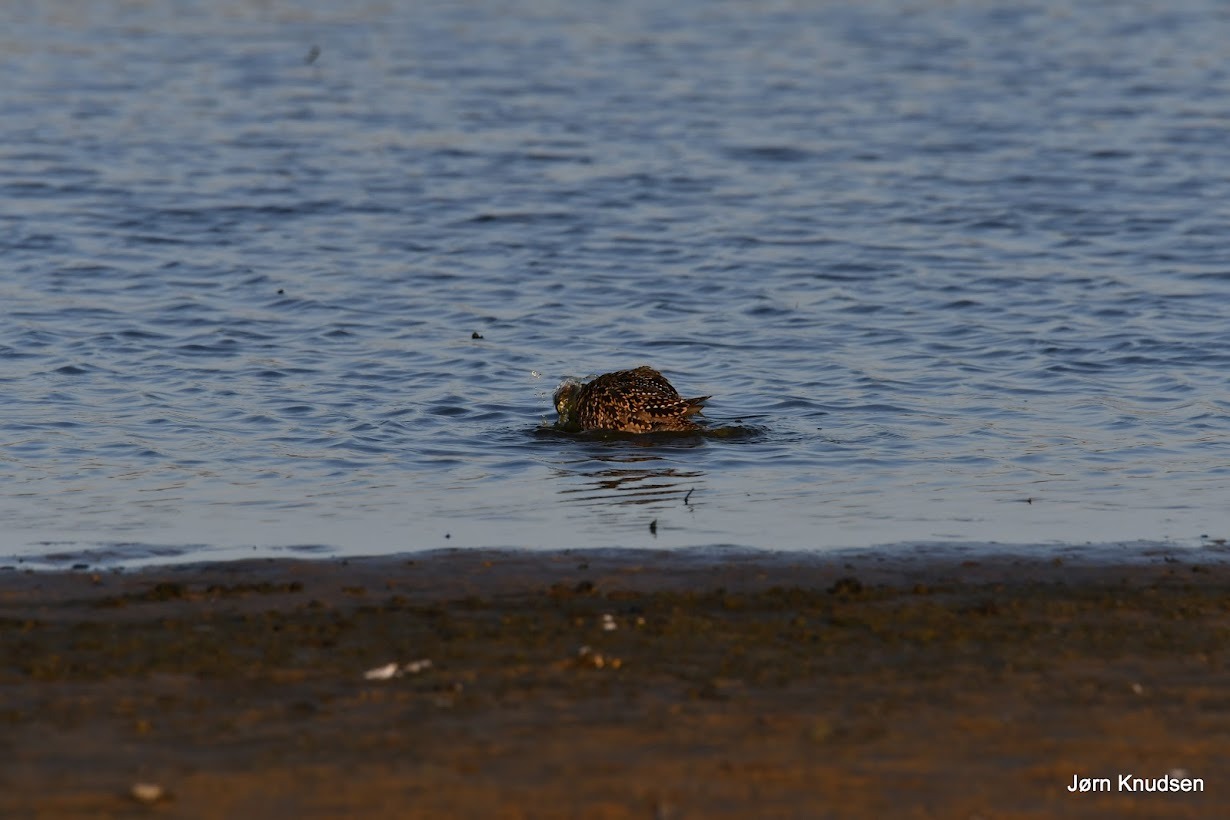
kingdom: Animalia
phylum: Chordata
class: Aves
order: Charadriiformes
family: Charadriidae
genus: Pluvialis
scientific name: Pluvialis apricaria
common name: Hjejle
